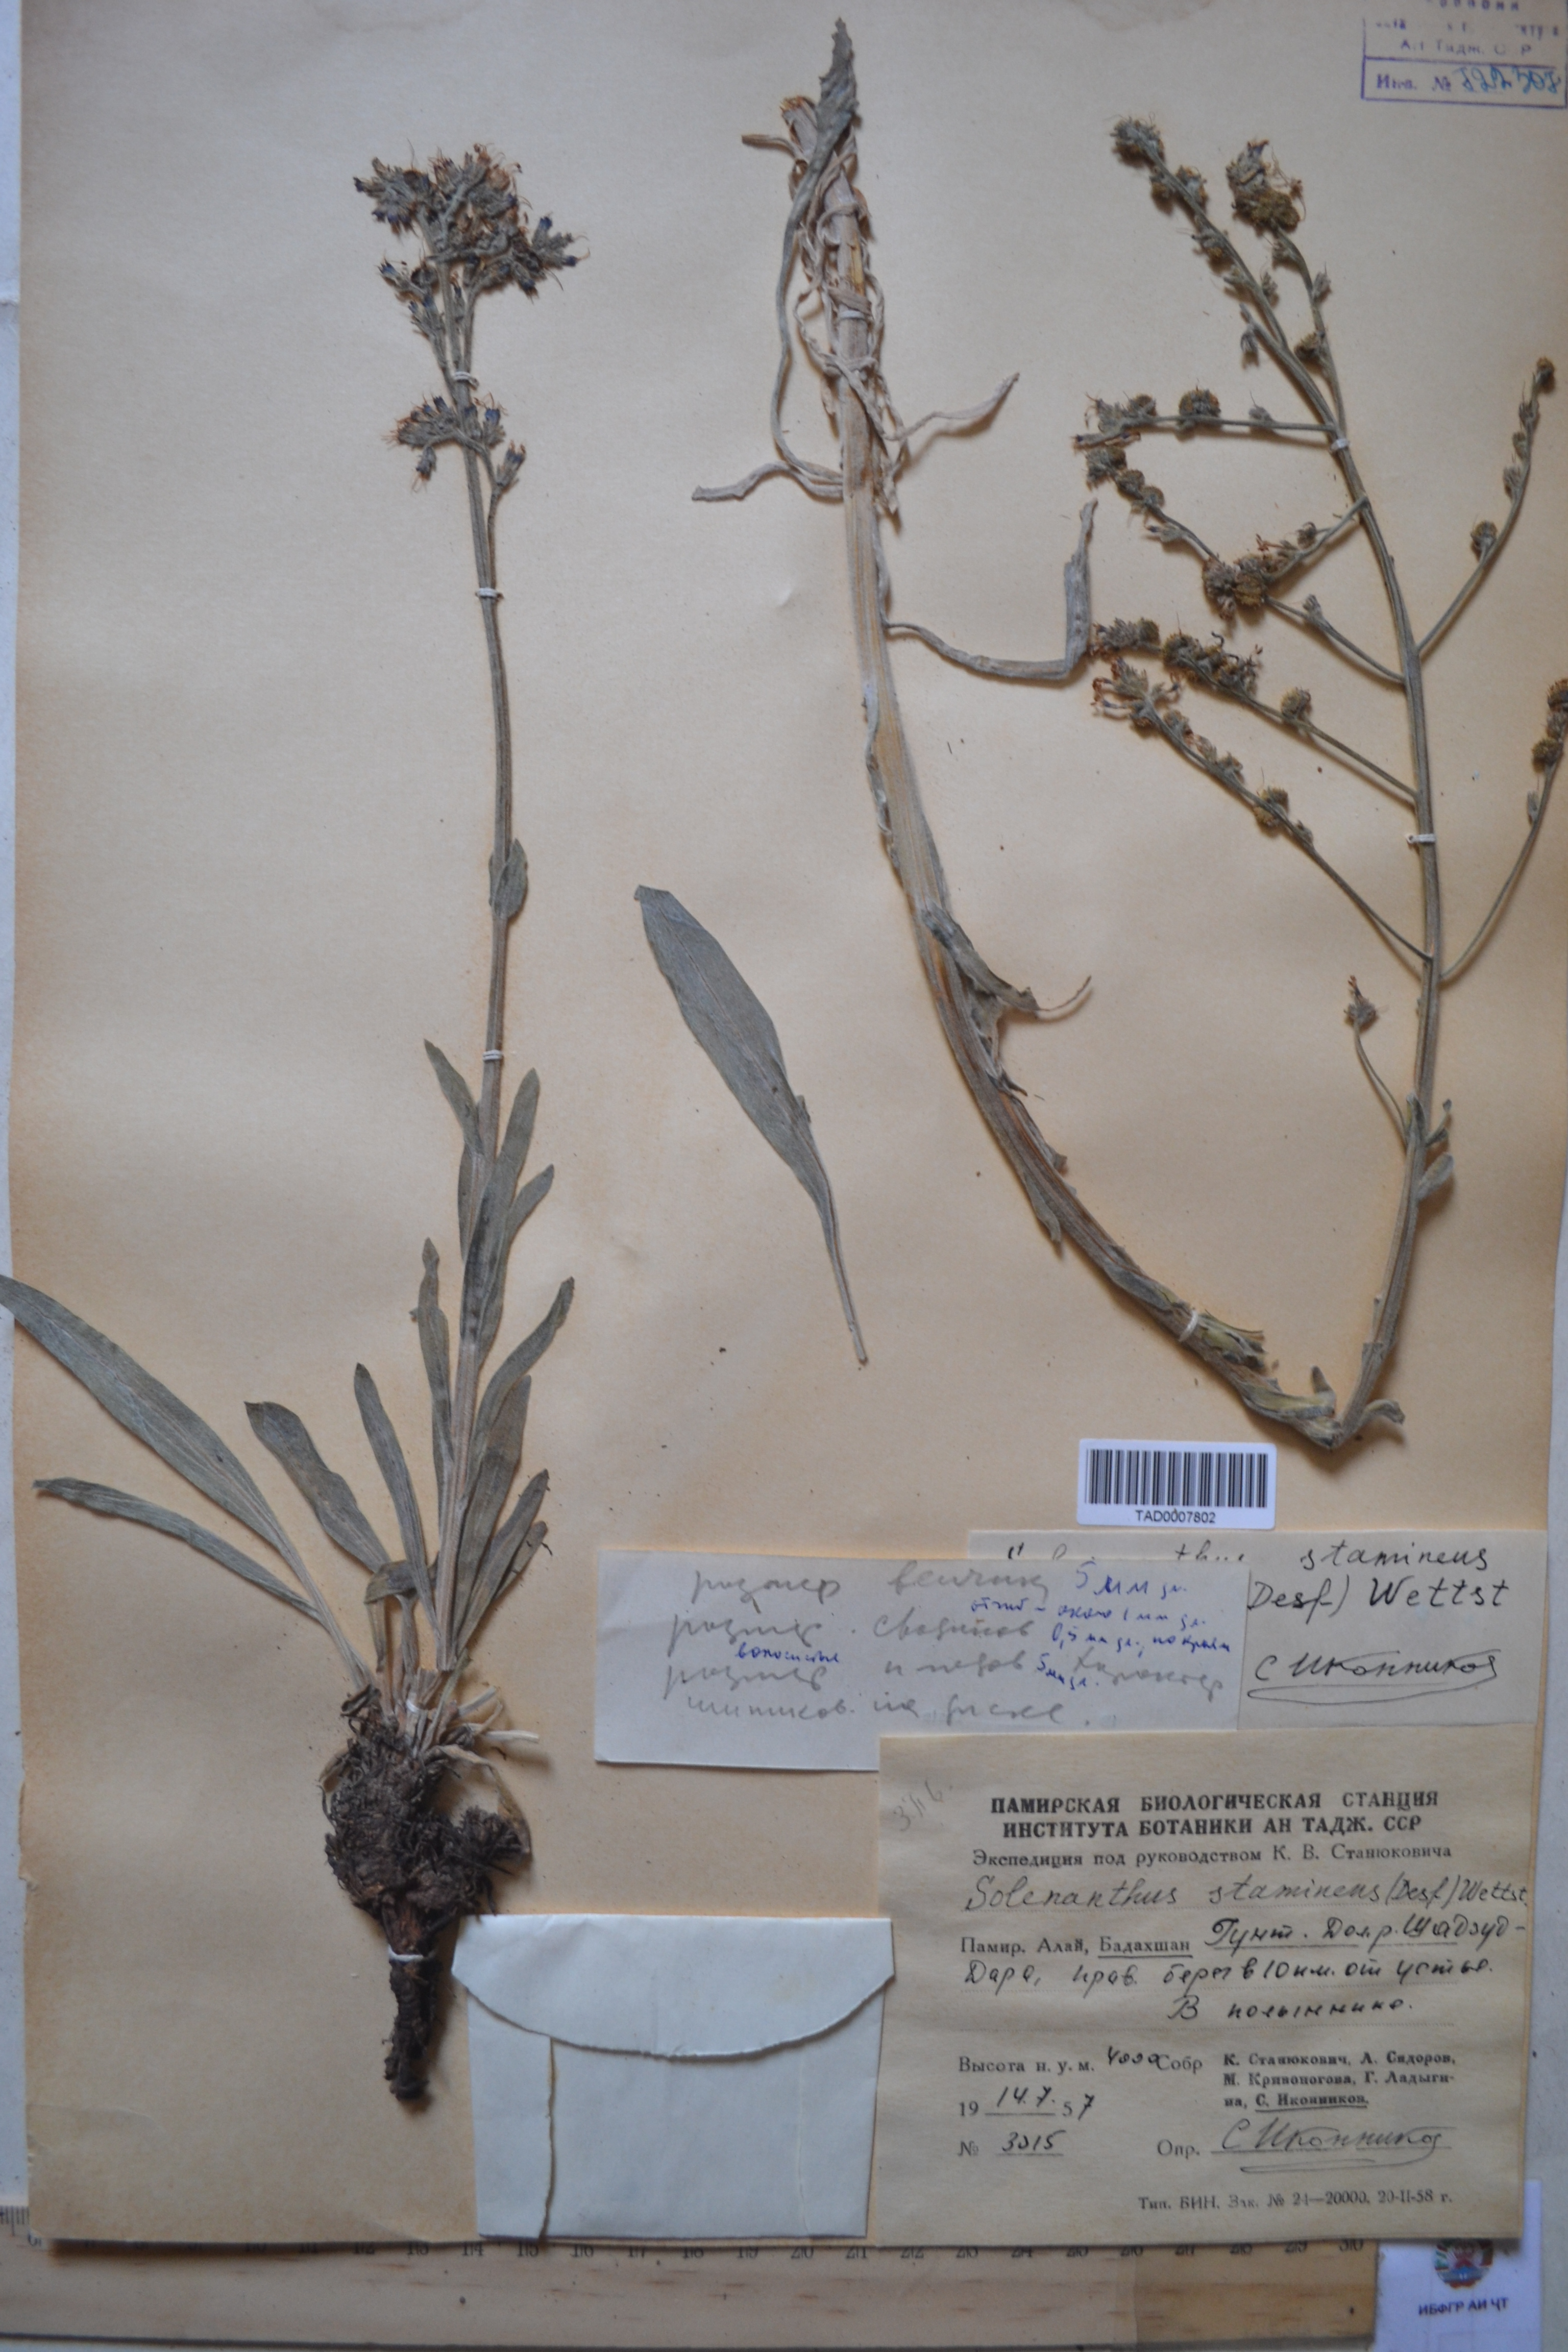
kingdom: Plantae
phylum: Tracheophyta
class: Magnoliopsida
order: Boraginales
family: Boraginaceae
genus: Solenanthus
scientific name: Solenanthus stamineus
